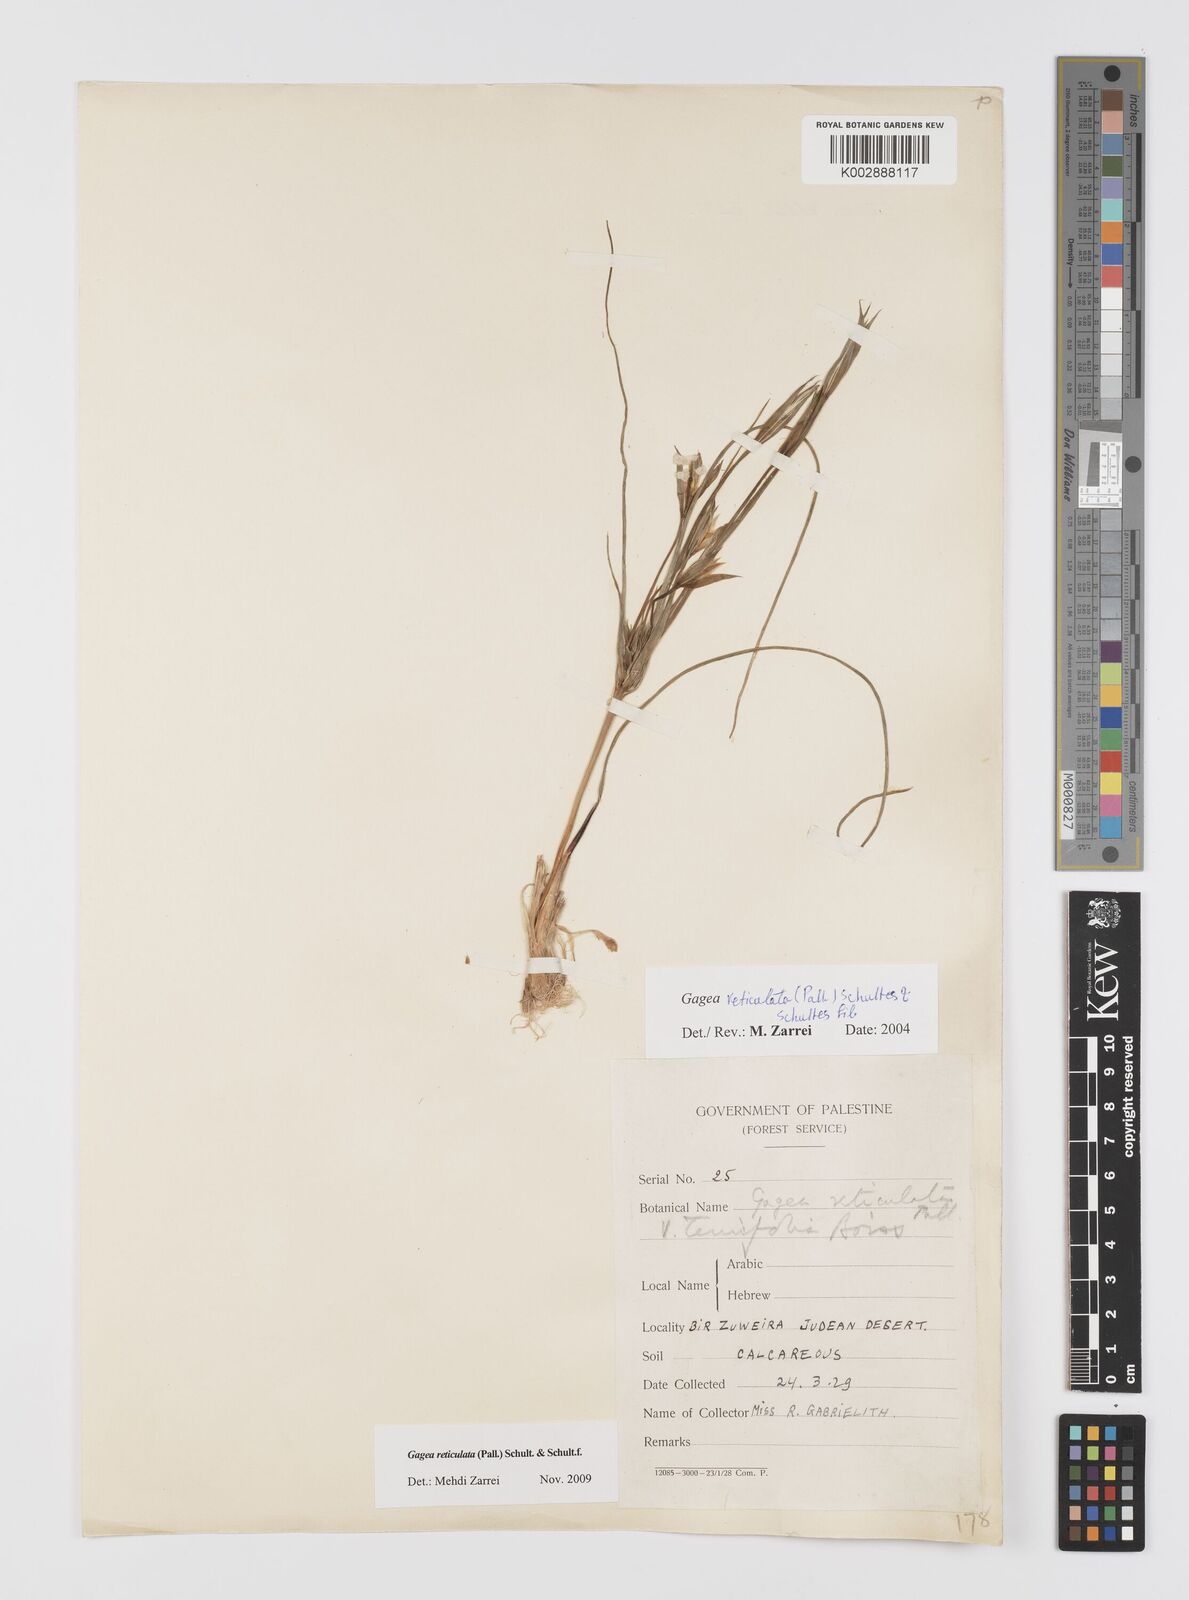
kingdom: Plantae
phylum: Tracheophyta
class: Liliopsida
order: Liliales
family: Liliaceae
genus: Gagea
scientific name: Gagea reticulata
